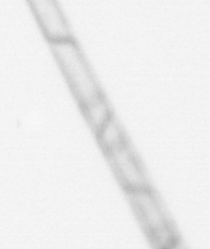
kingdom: Chromista
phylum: Ochrophyta
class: Bacillariophyceae
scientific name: Bacillariophyceae
